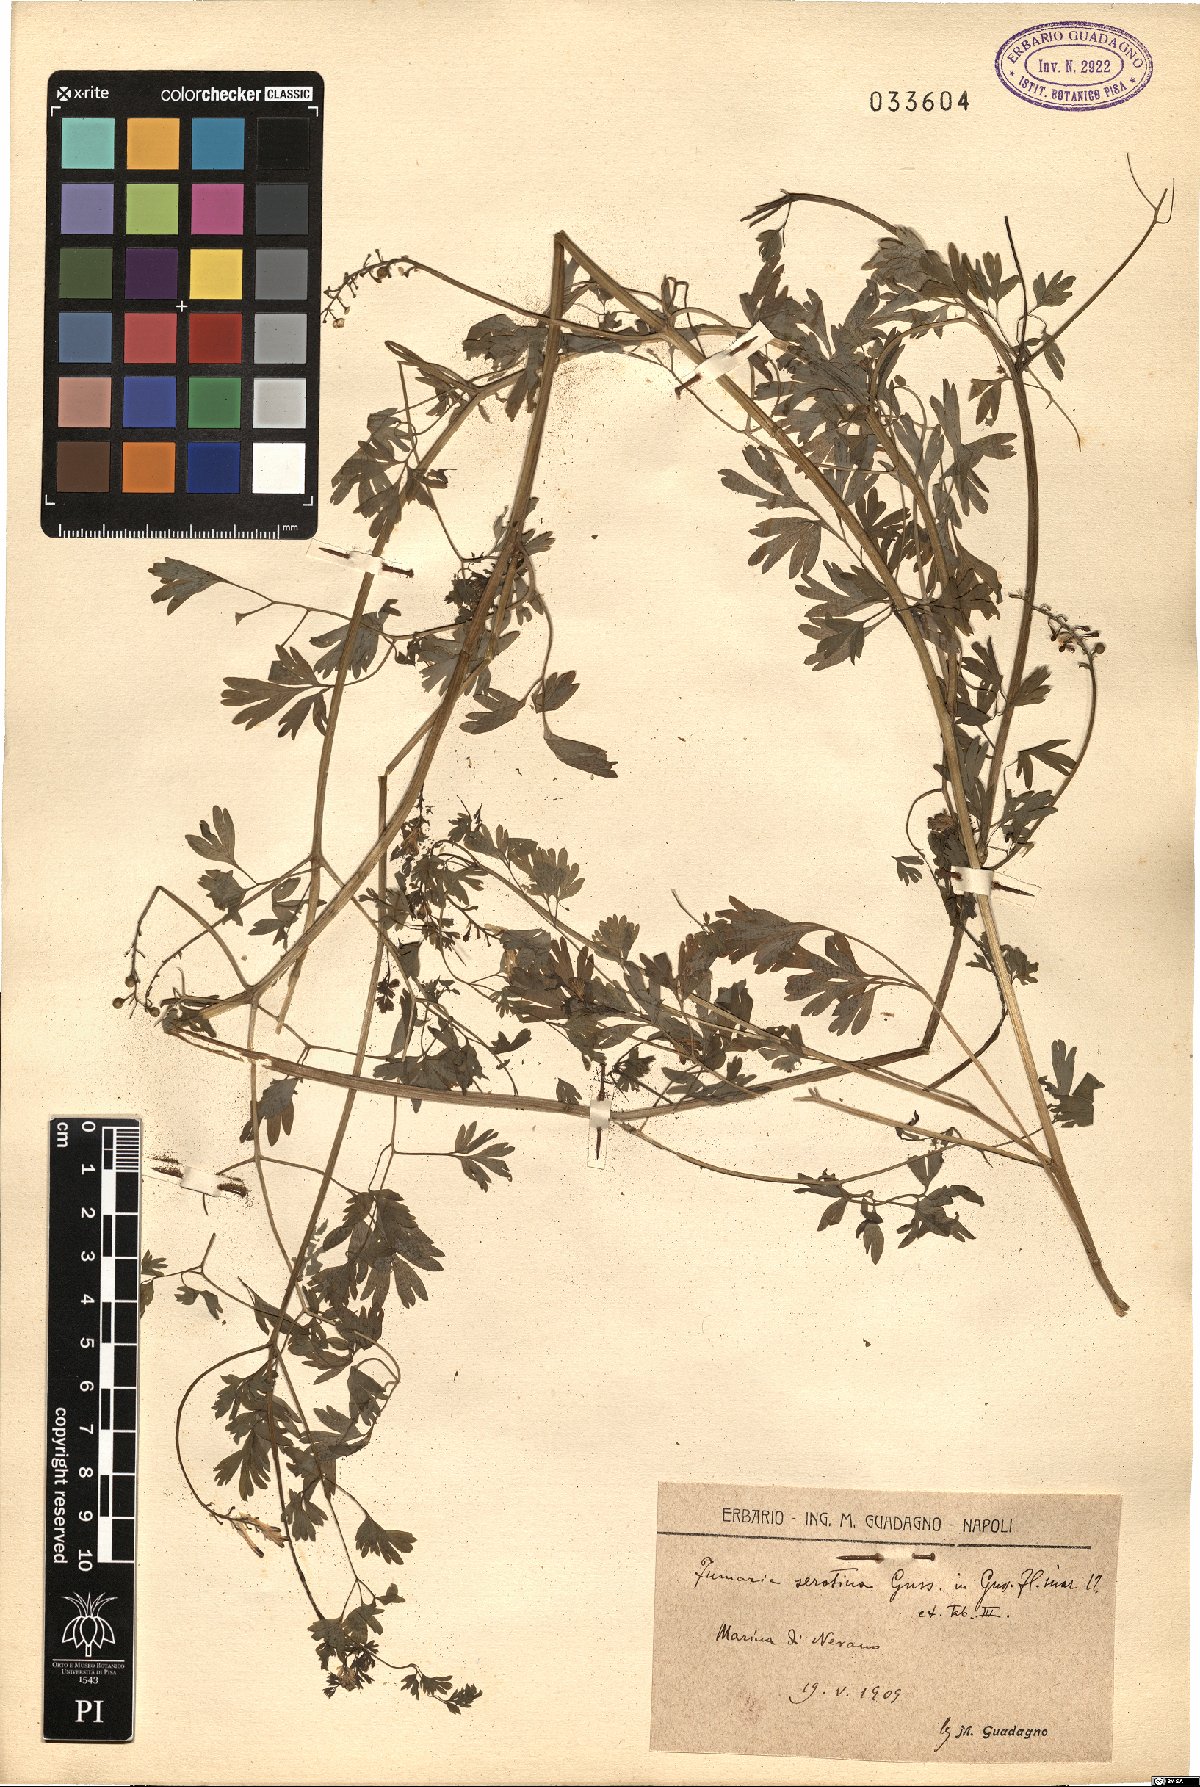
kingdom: Plantae
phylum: Tracheophyta
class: Magnoliopsida
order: Ranunculales
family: Papaveraceae
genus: Fumaria
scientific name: Fumaria bastardii
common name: Tall ramping-fumitory
